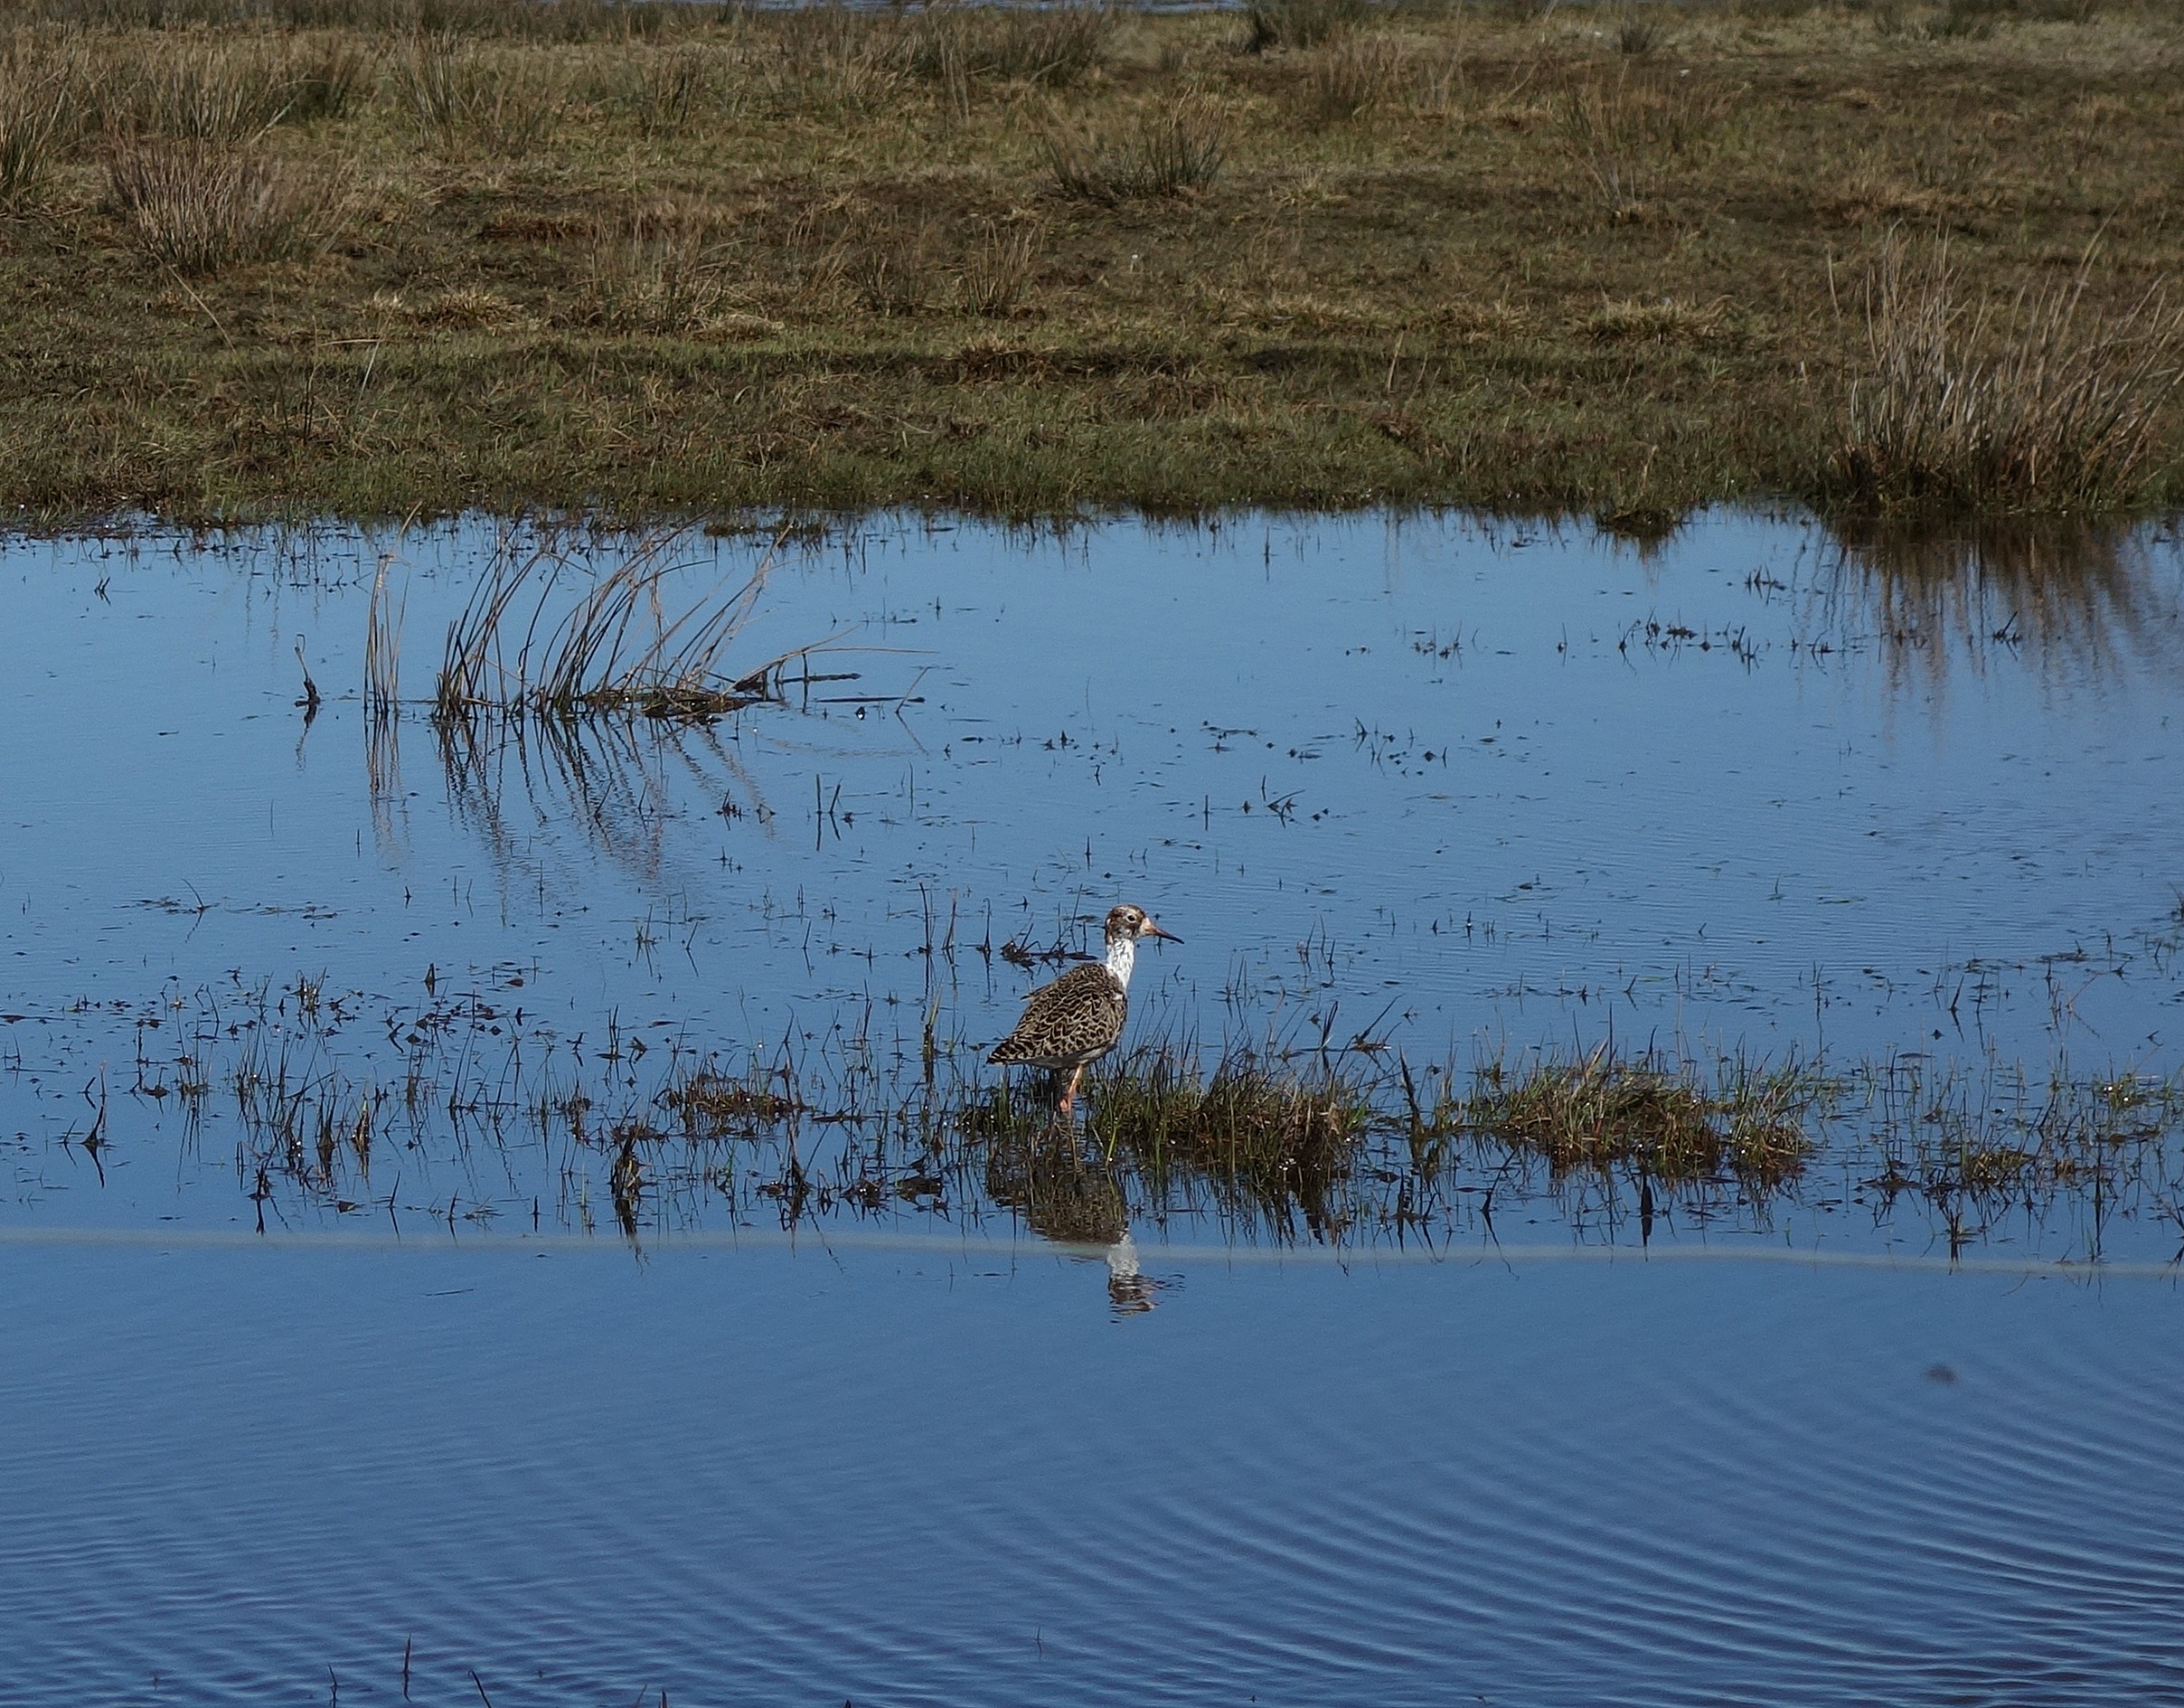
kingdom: Animalia
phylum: Chordata
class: Aves
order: Charadriiformes
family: Scolopacidae
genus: Calidris
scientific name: Calidris pugnax
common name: Brushane
